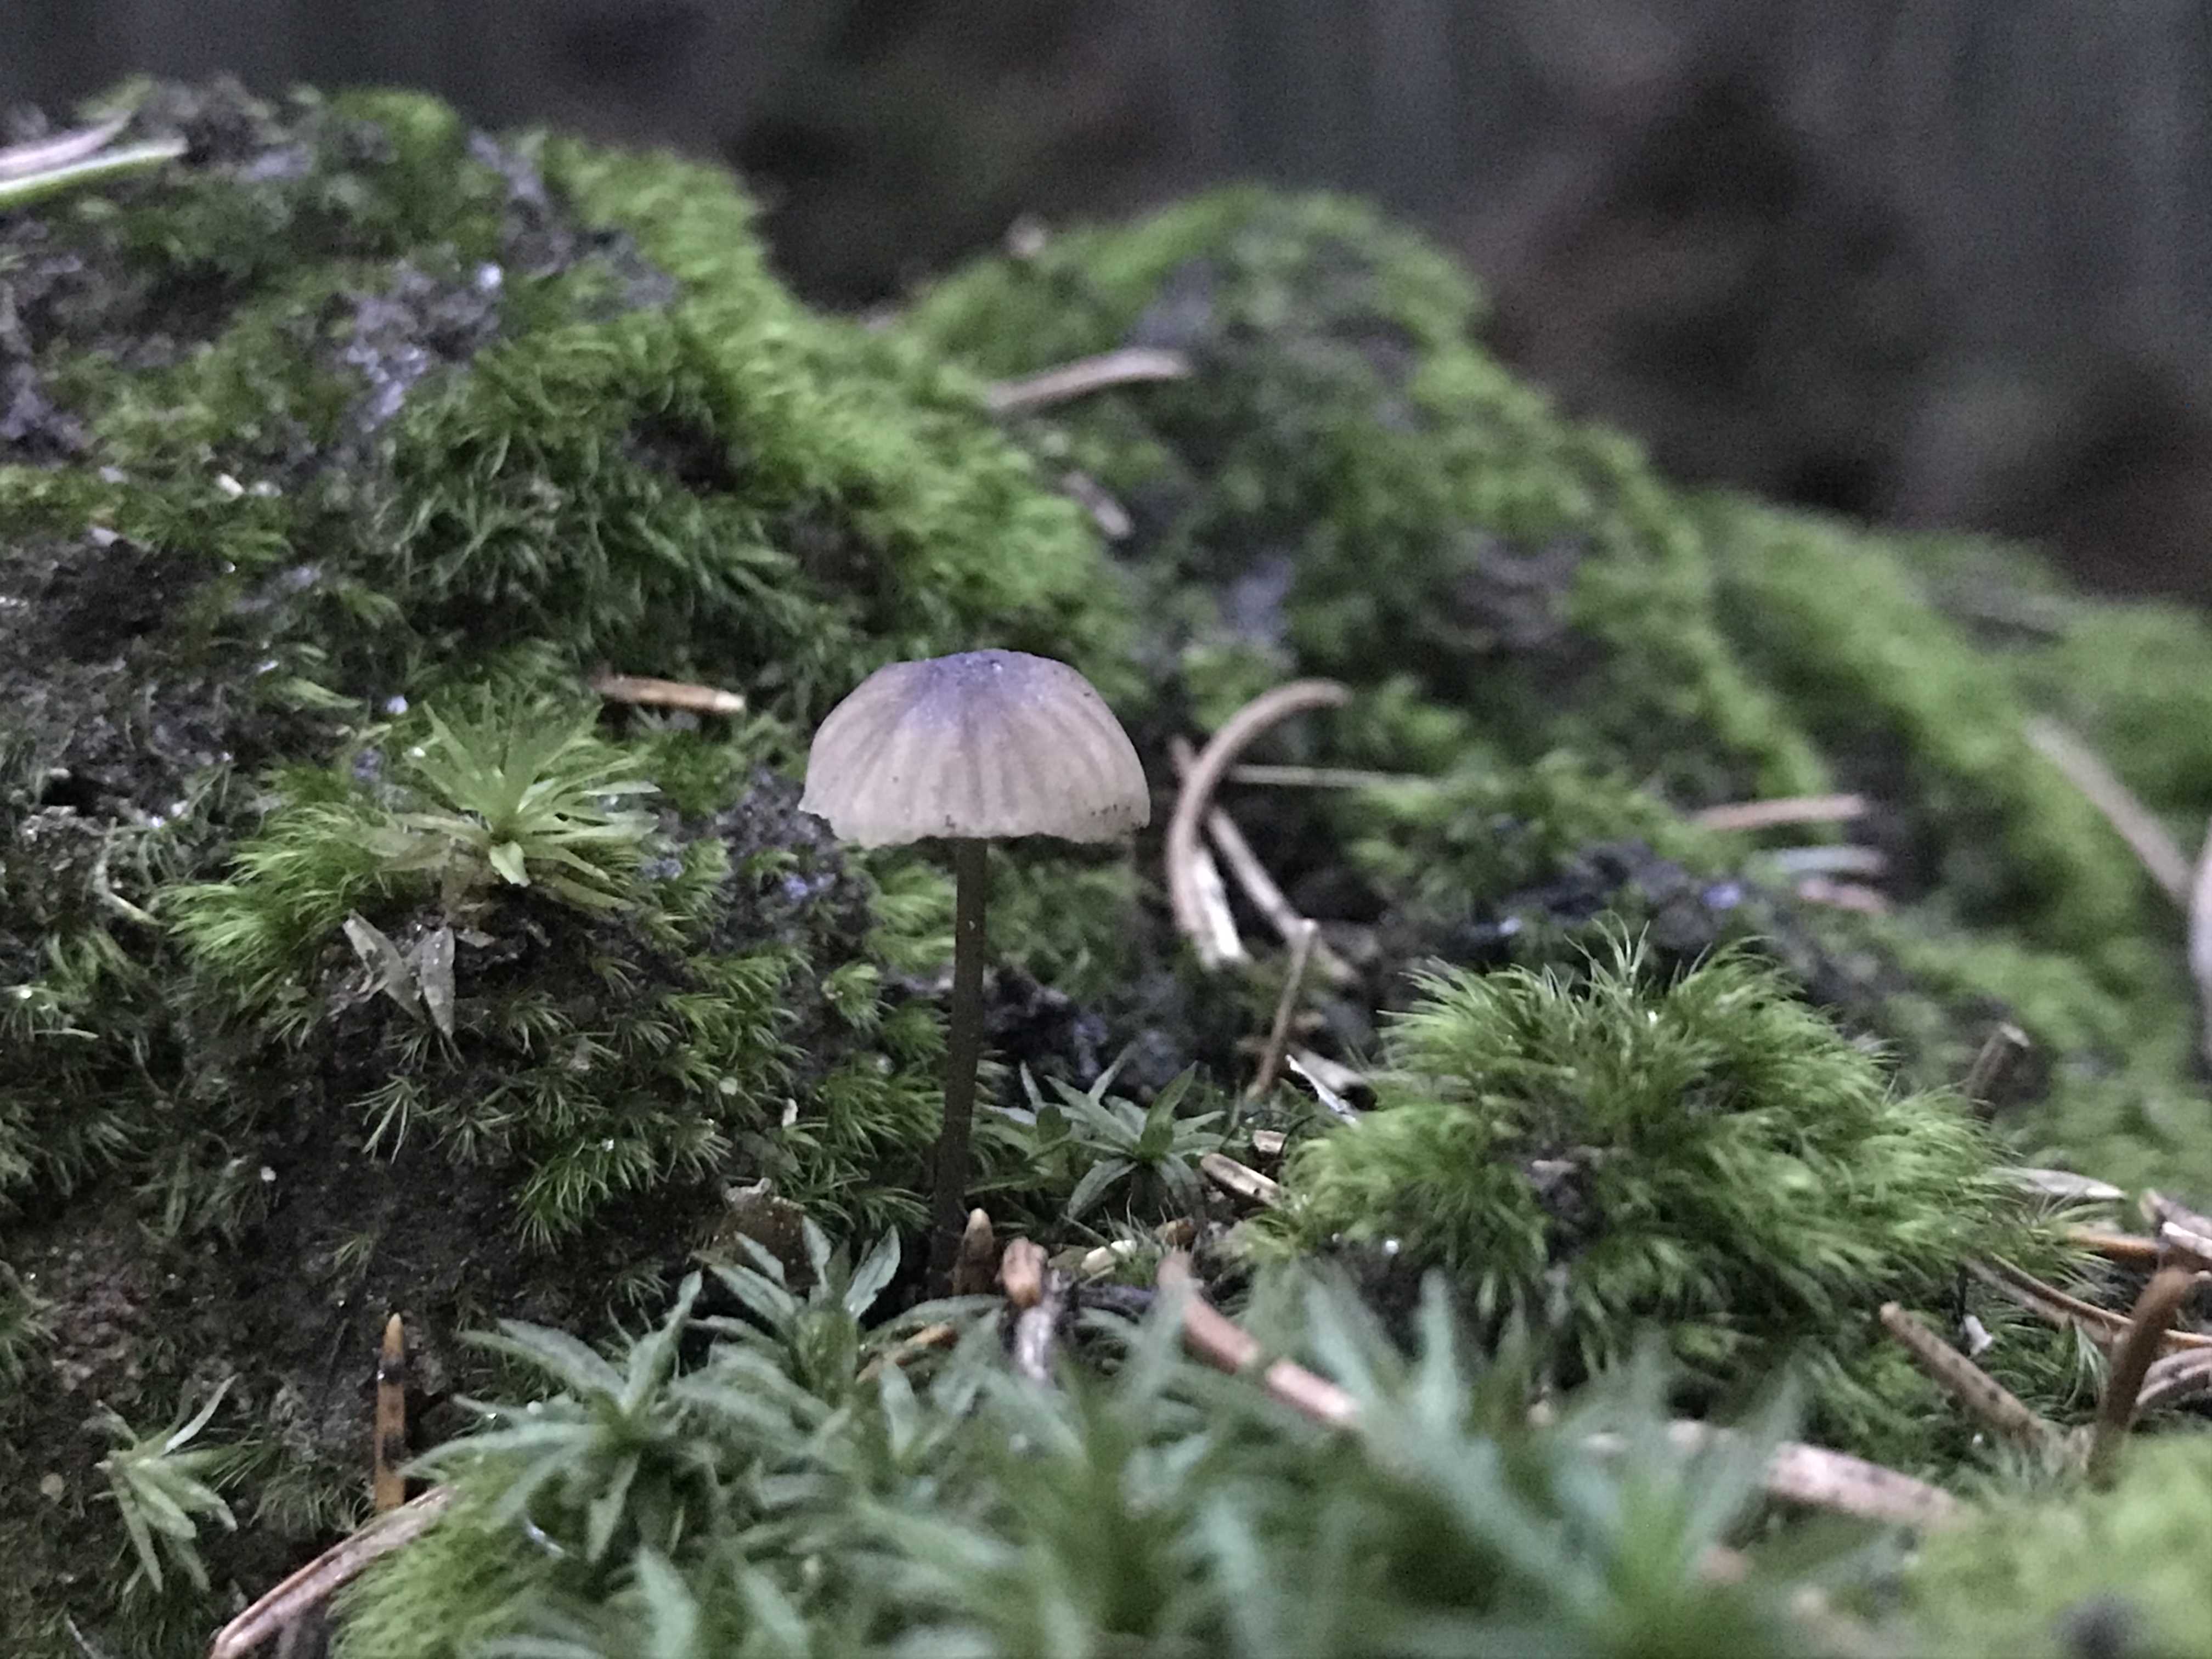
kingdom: Fungi
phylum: Basidiomycota
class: Agaricomycetes
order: Agaricales
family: Mycenaceae
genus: Mycena
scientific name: Mycena galopus
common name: hvidmælket huesvamp
